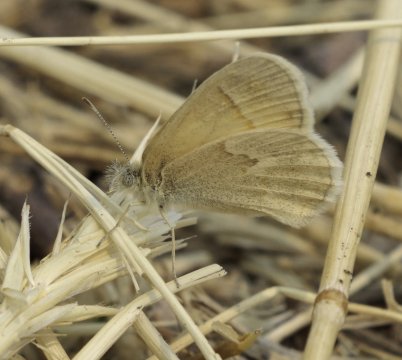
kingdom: Animalia
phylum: Arthropoda
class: Insecta
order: Lepidoptera
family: Nymphalidae
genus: Coenonympha
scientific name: Coenonympha tullia
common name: Large Heath
